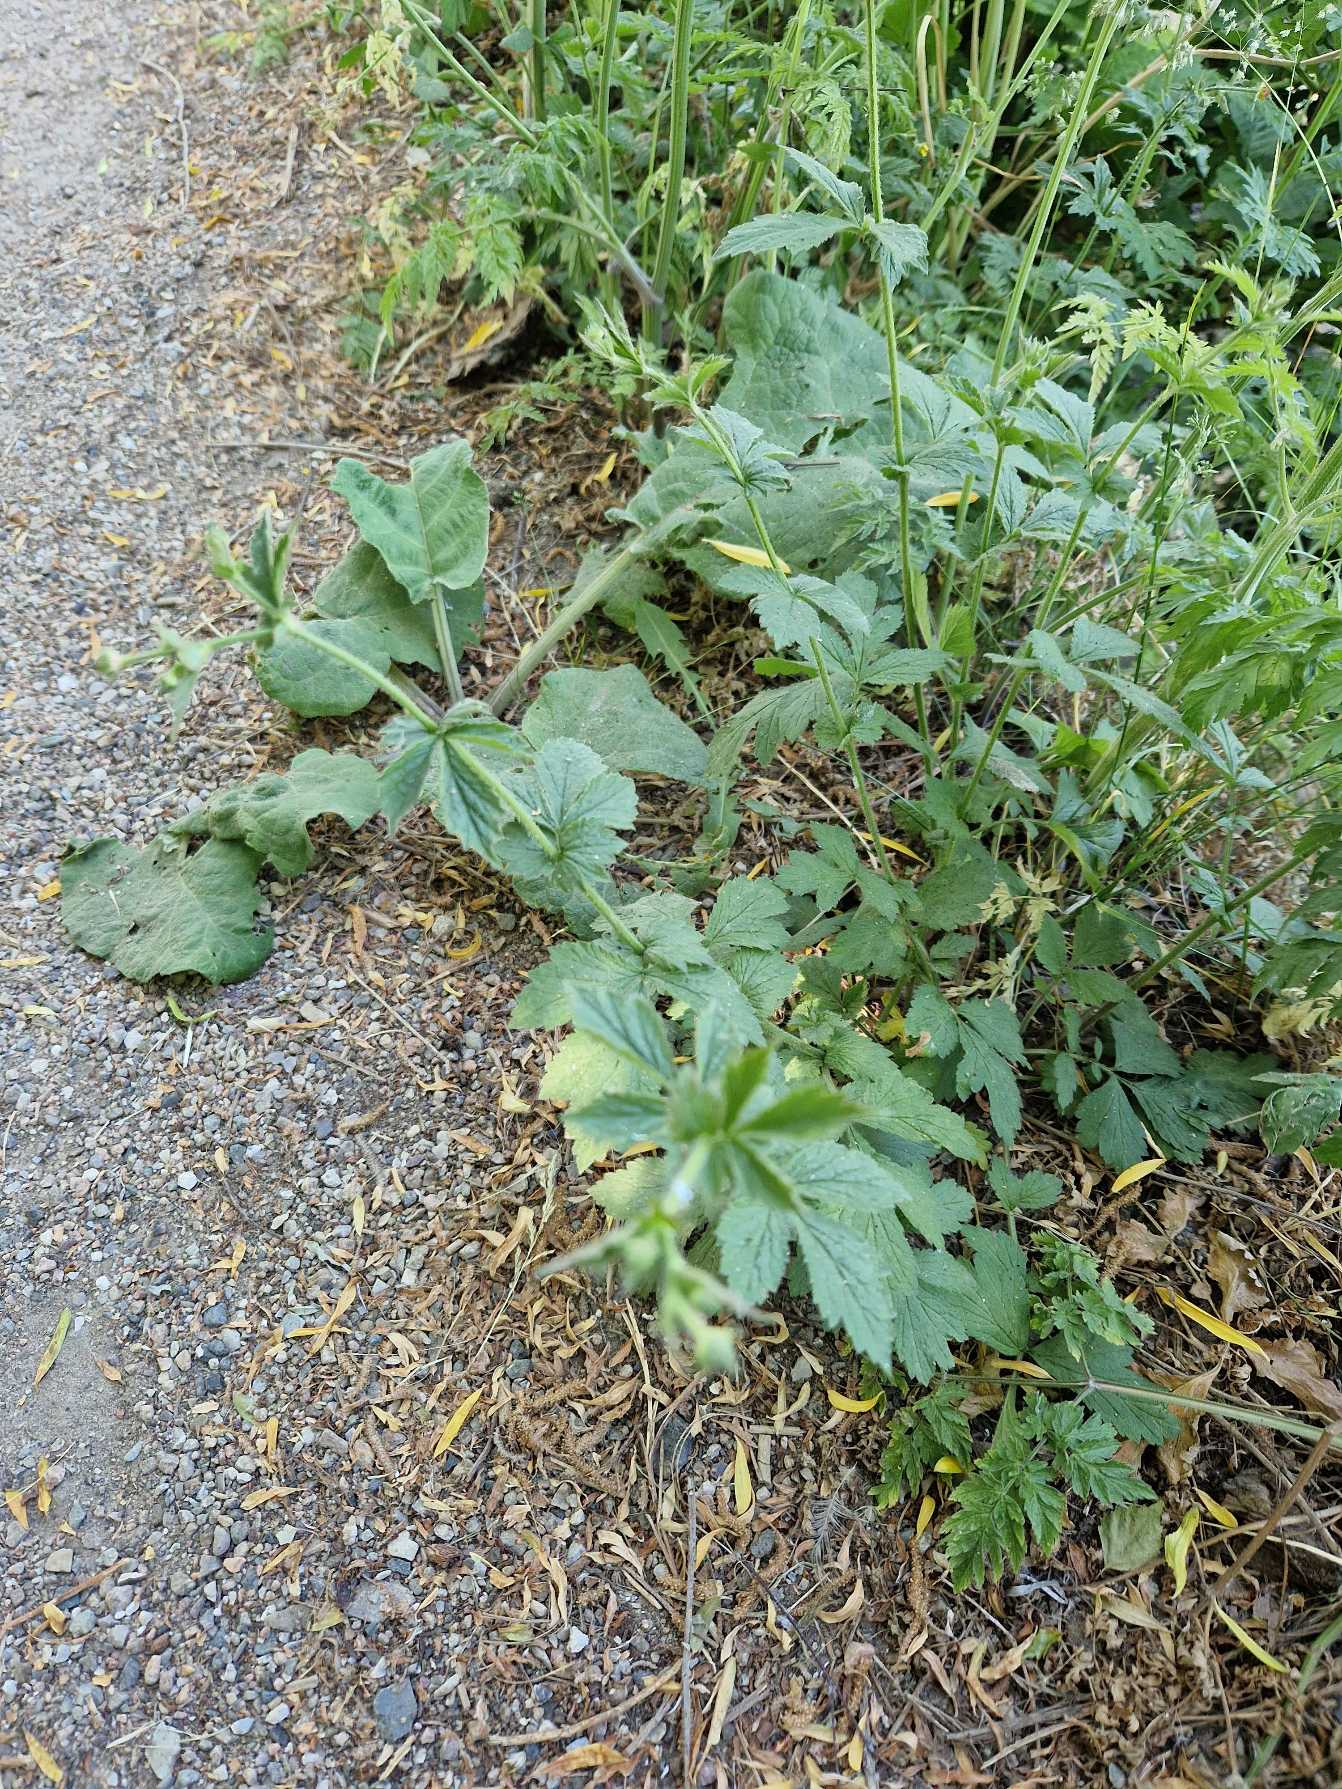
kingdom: Plantae
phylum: Tracheophyta
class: Magnoliopsida
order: Rosales
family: Rosaceae
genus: Geum
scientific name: Geum urbanum
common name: Feber-nellikerod
